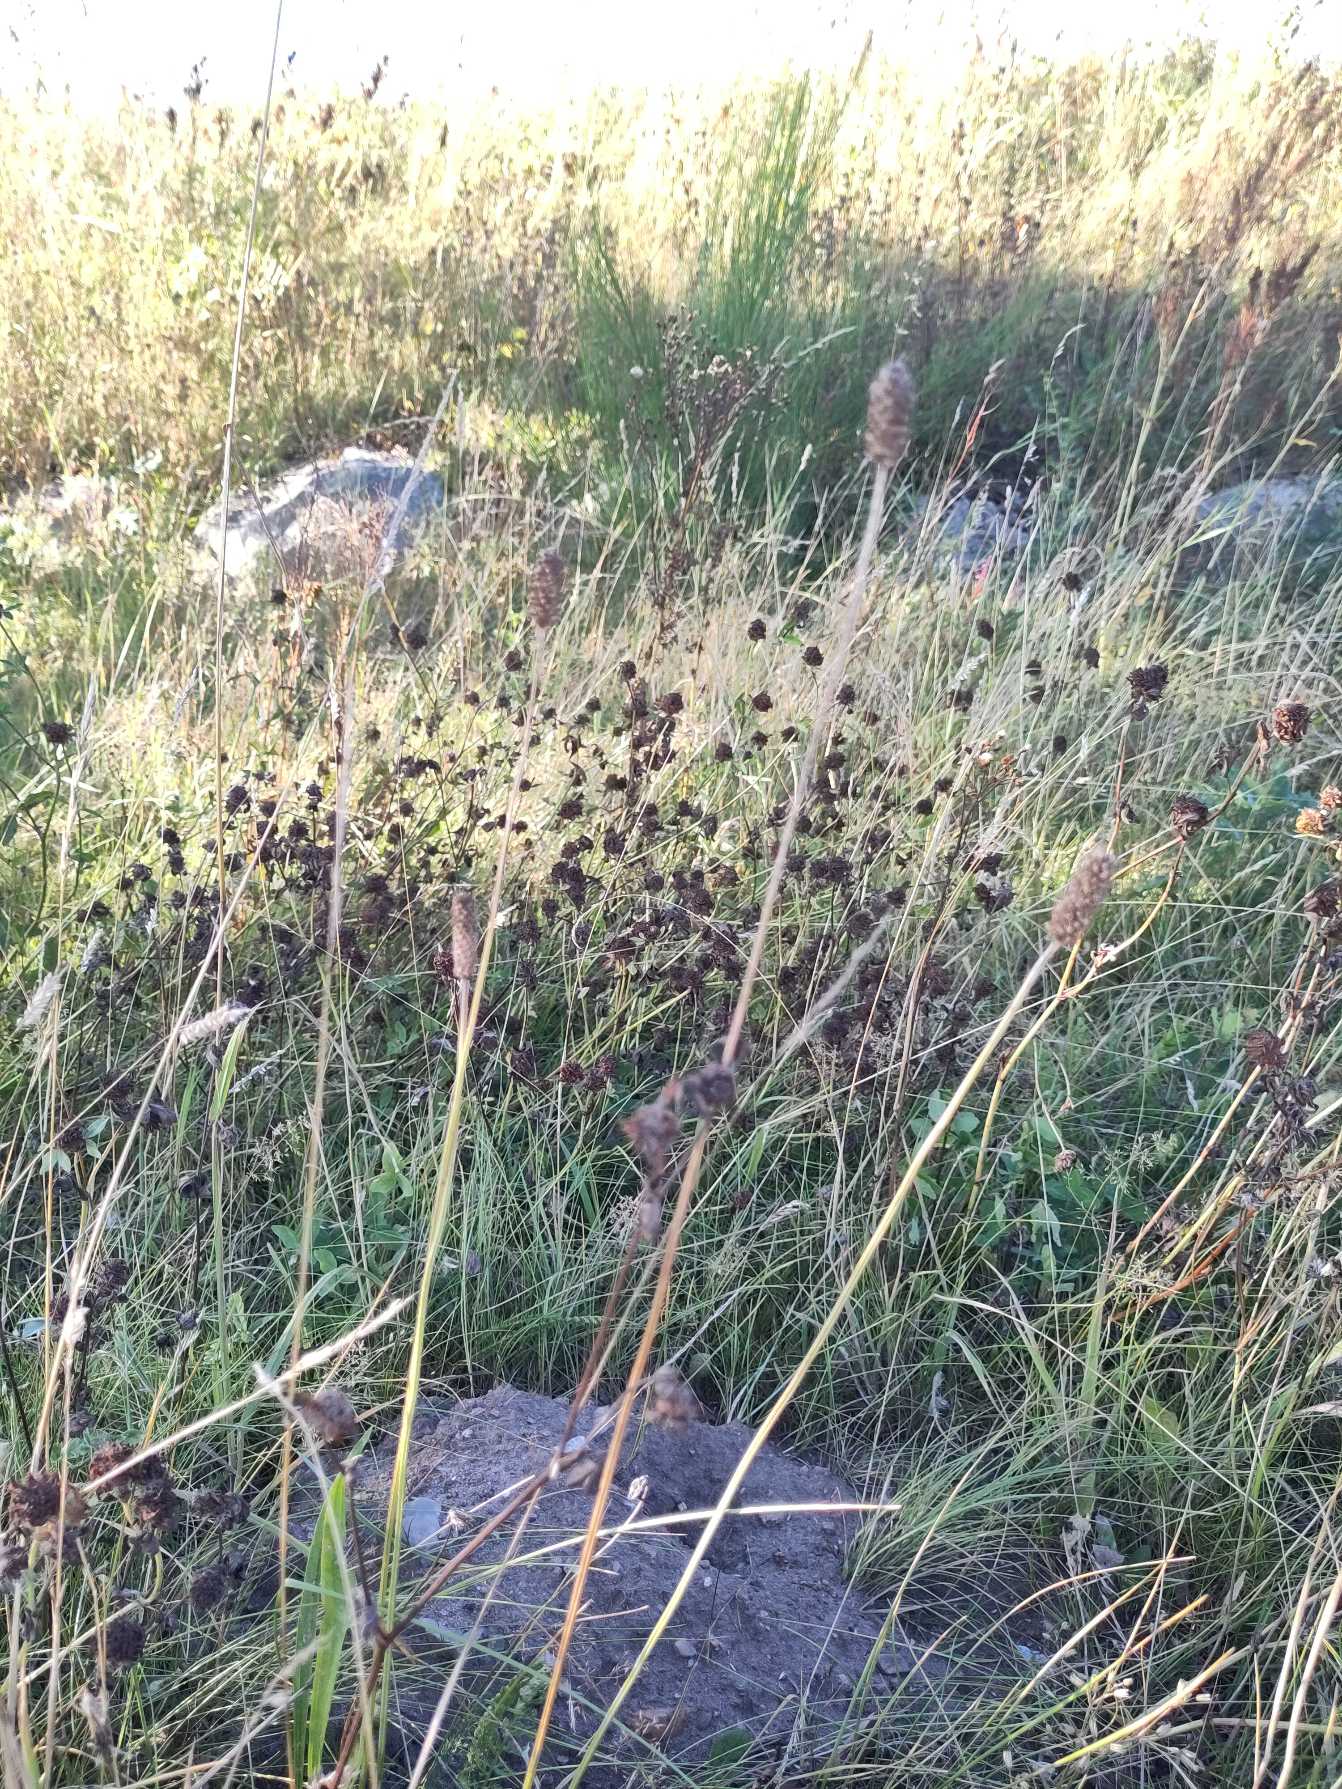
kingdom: Plantae
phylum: Tracheophyta
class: Magnoliopsida
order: Lamiales
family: Plantaginaceae
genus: Plantago
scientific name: Plantago lanceolata
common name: Lancet-vejbred
